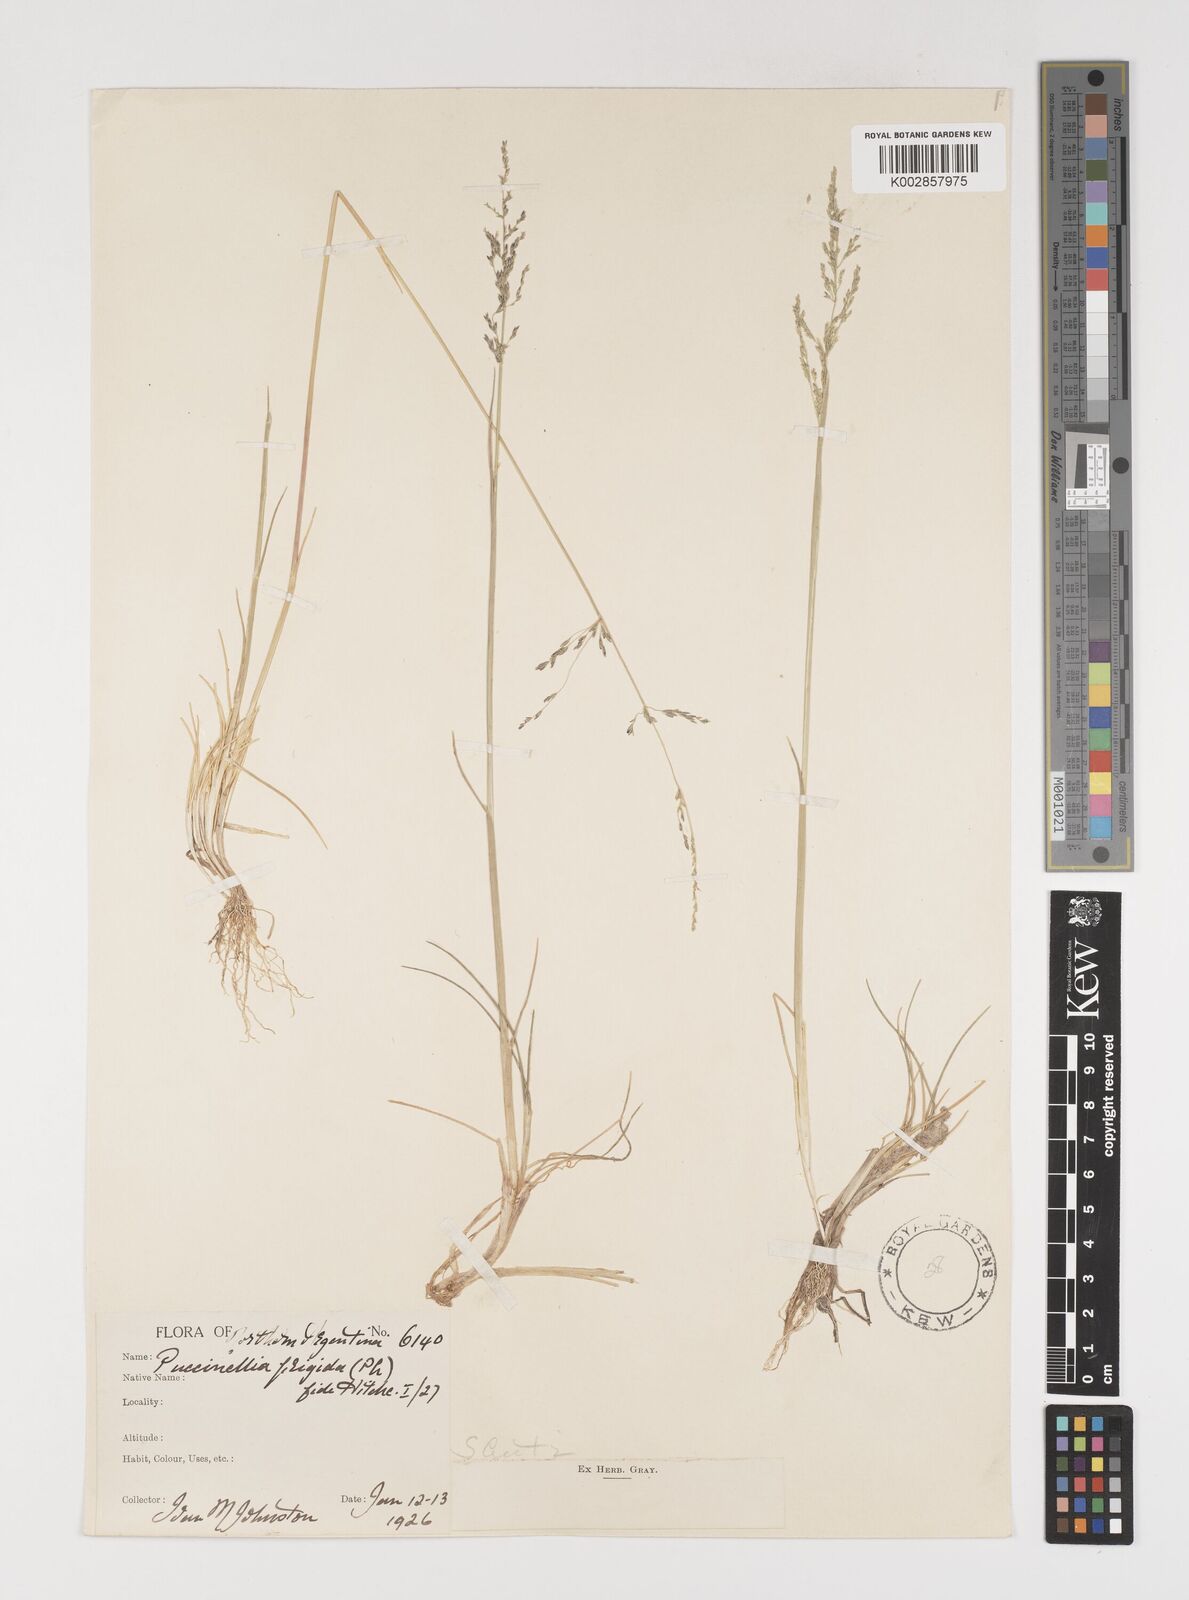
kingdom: Plantae
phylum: Tracheophyta
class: Liliopsida
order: Poales
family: Poaceae
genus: Puccinellia
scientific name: Puccinellia frigida
